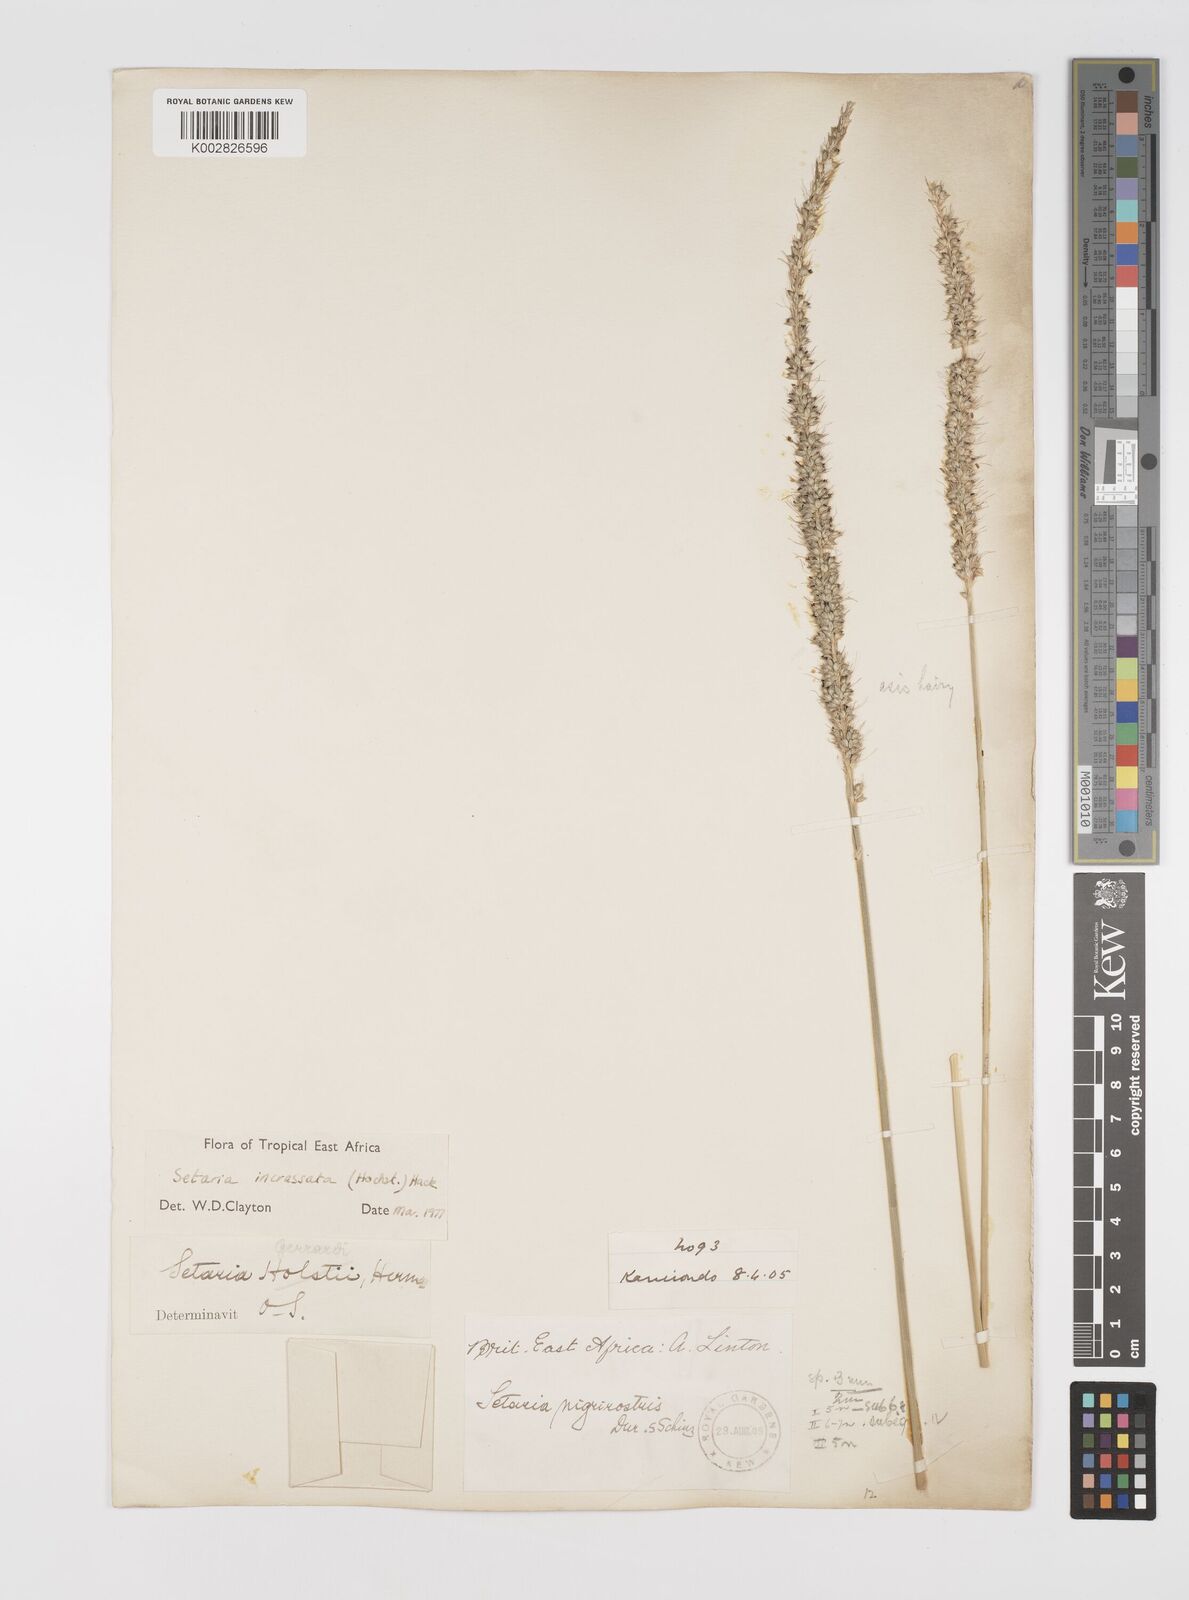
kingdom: Plantae
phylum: Tracheophyta
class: Liliopsida
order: Poales
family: Poaceae
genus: Setaria
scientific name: Setaria incrassata
